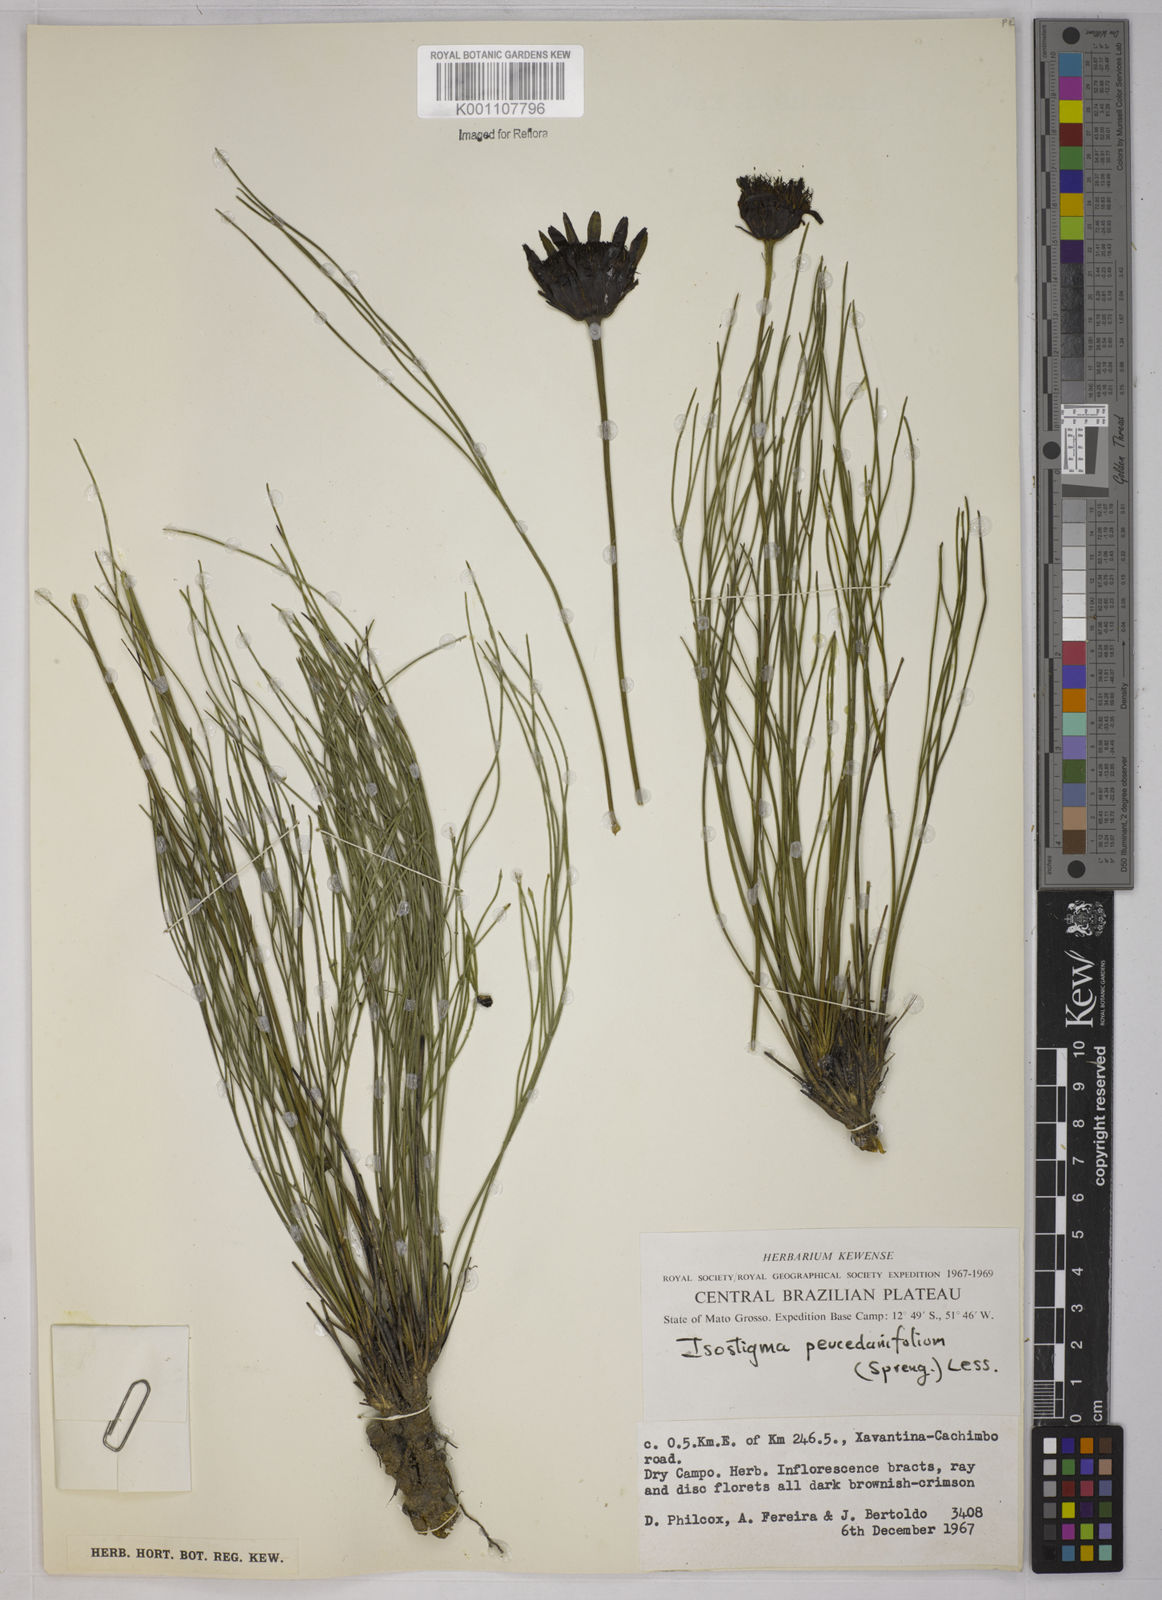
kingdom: Plantae
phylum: Tracheophyta
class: Magnoliopsida
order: Asterales
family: Asteraceae
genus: Isostigma
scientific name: Isostigma
